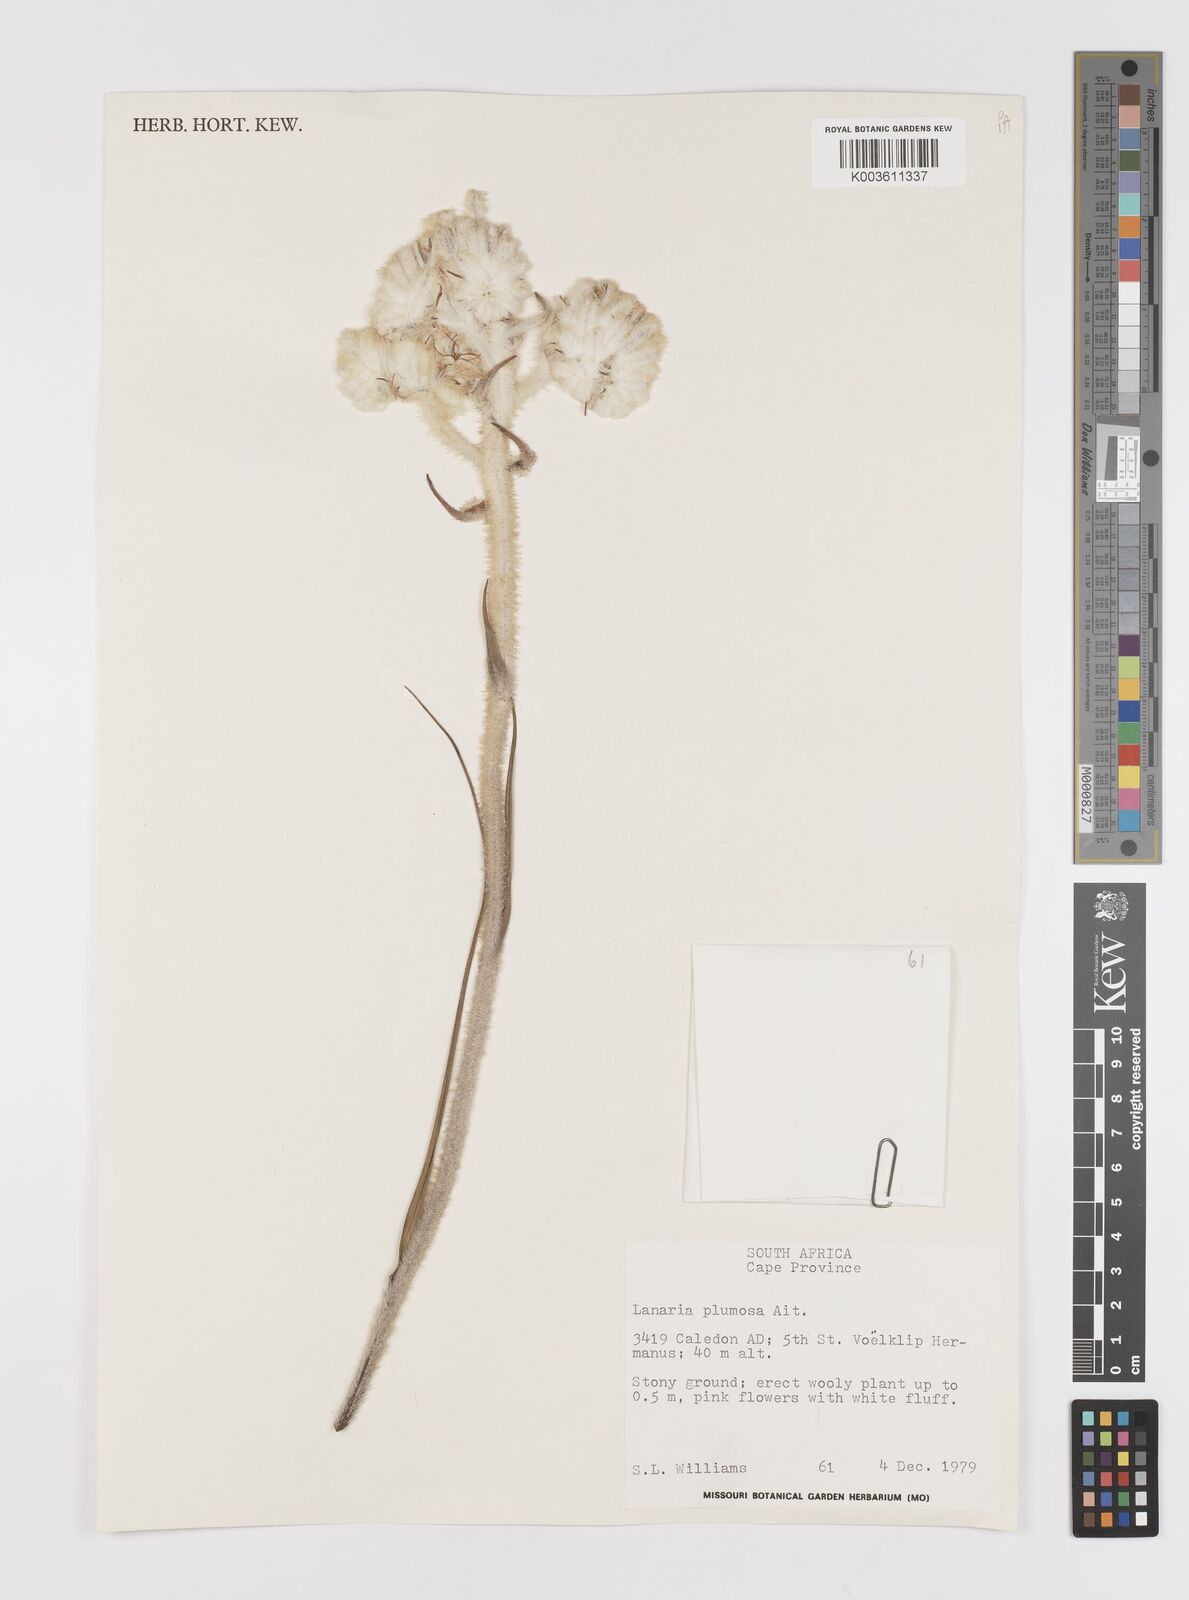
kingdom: Plantae
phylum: Tracheophyta
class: Liliopsida
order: Asparagales
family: Lanariaceae
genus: Lanaria
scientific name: Lanaria
